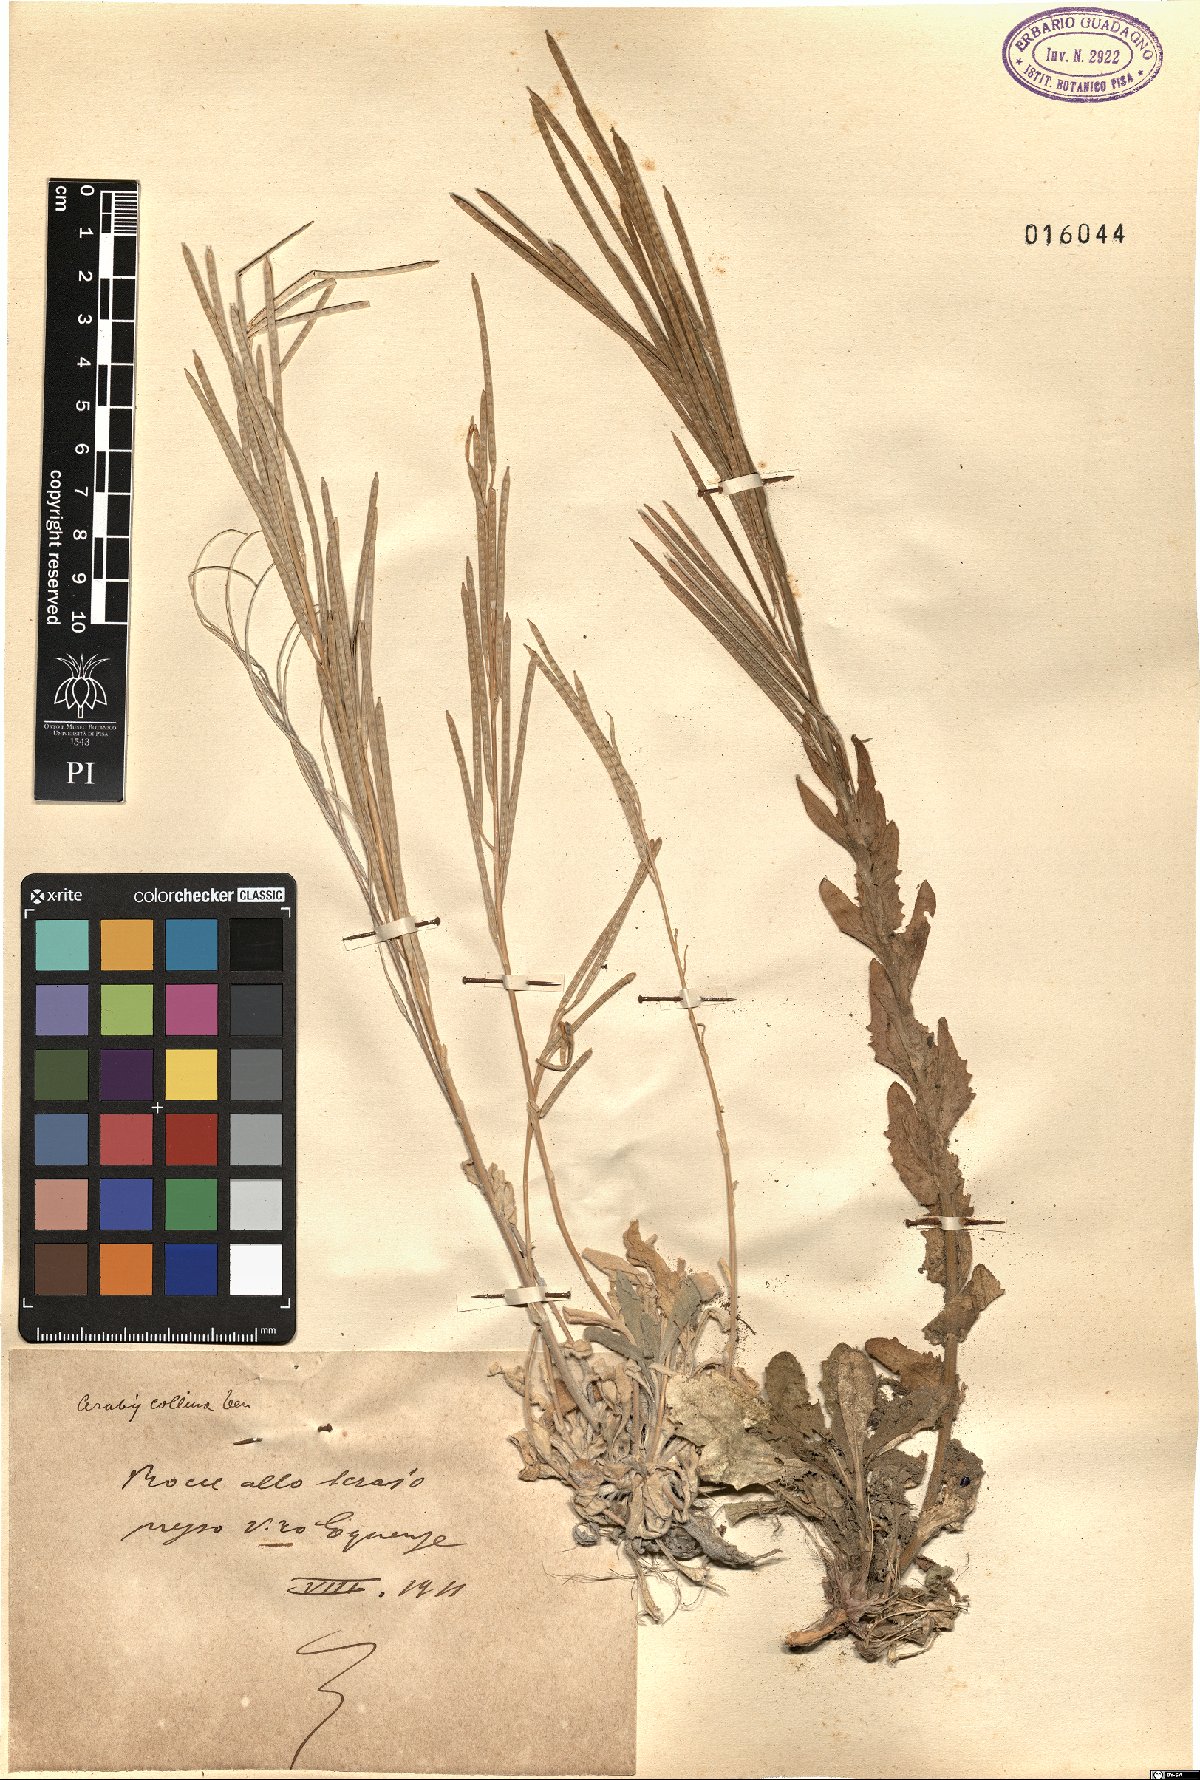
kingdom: Plantae
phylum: Tracheophyta
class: Magnoliopsida
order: Brassicales
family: Brassicaceae
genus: Arabis
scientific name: Arabis collina
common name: Rosy cress
